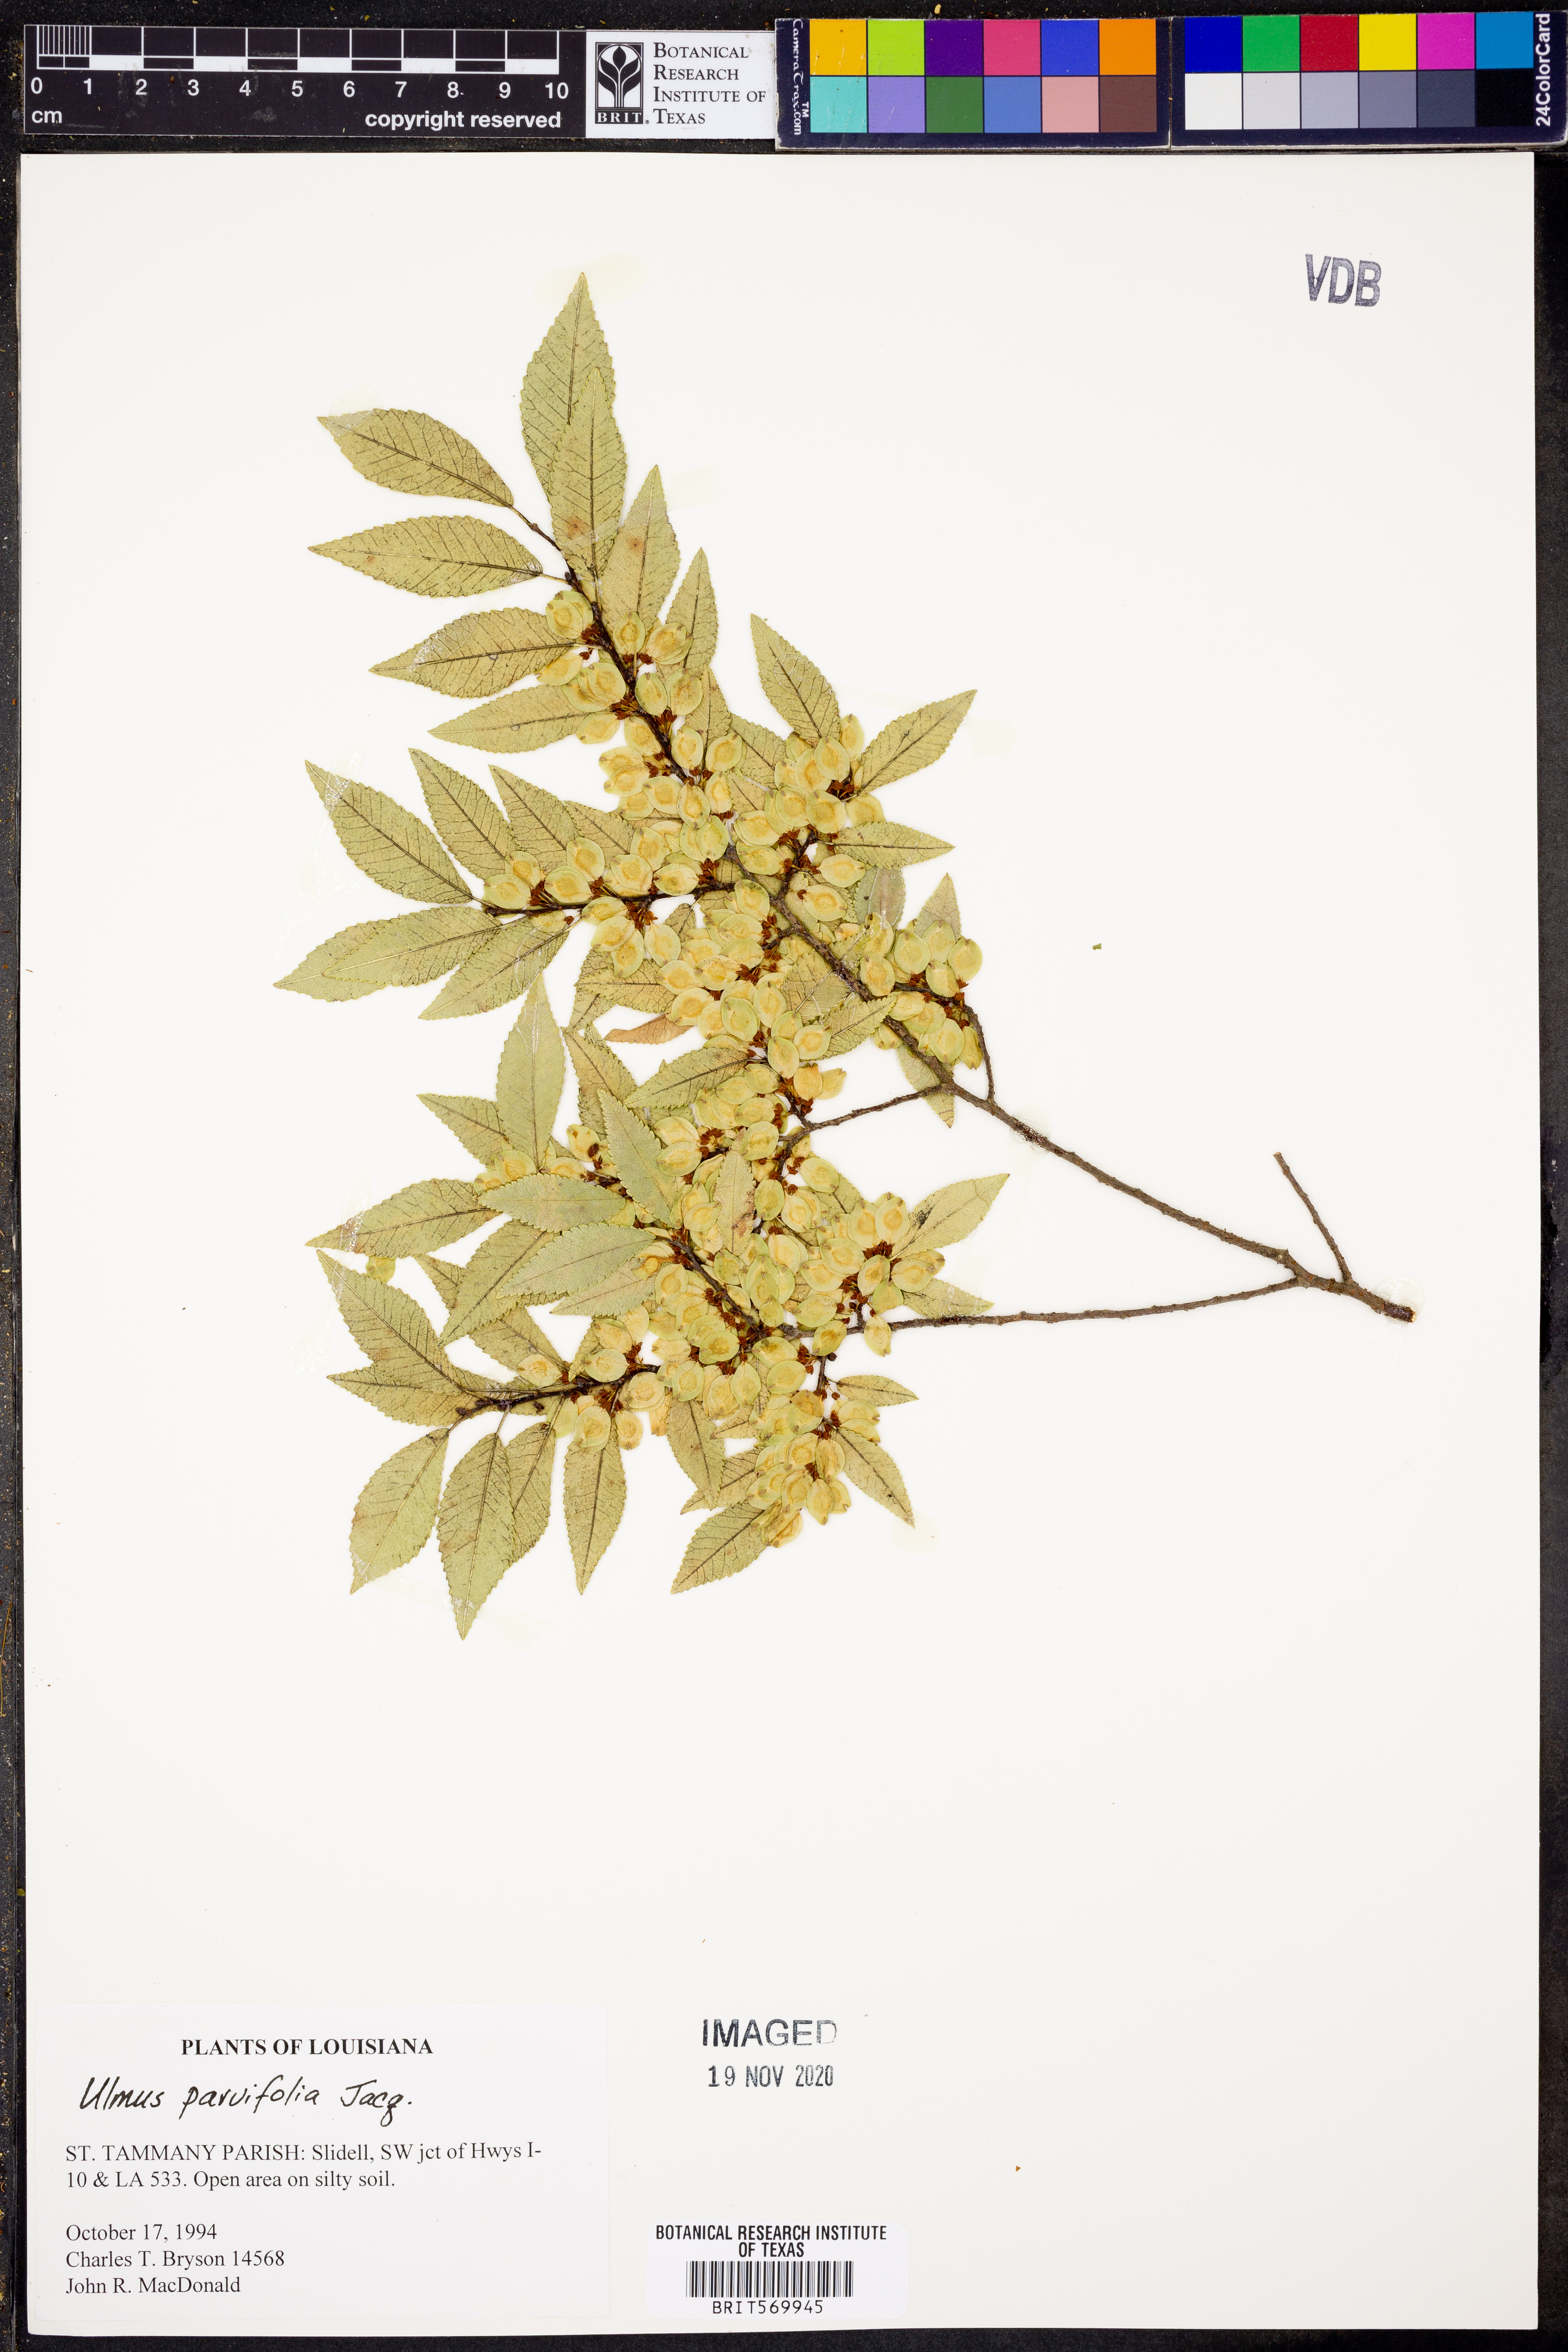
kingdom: Plantae
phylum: Tracheophyta
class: Magnoliopsida
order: Rosales
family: Ulmaceae
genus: Ulmus
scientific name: Ulmus parvifolia
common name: Chinese elm
